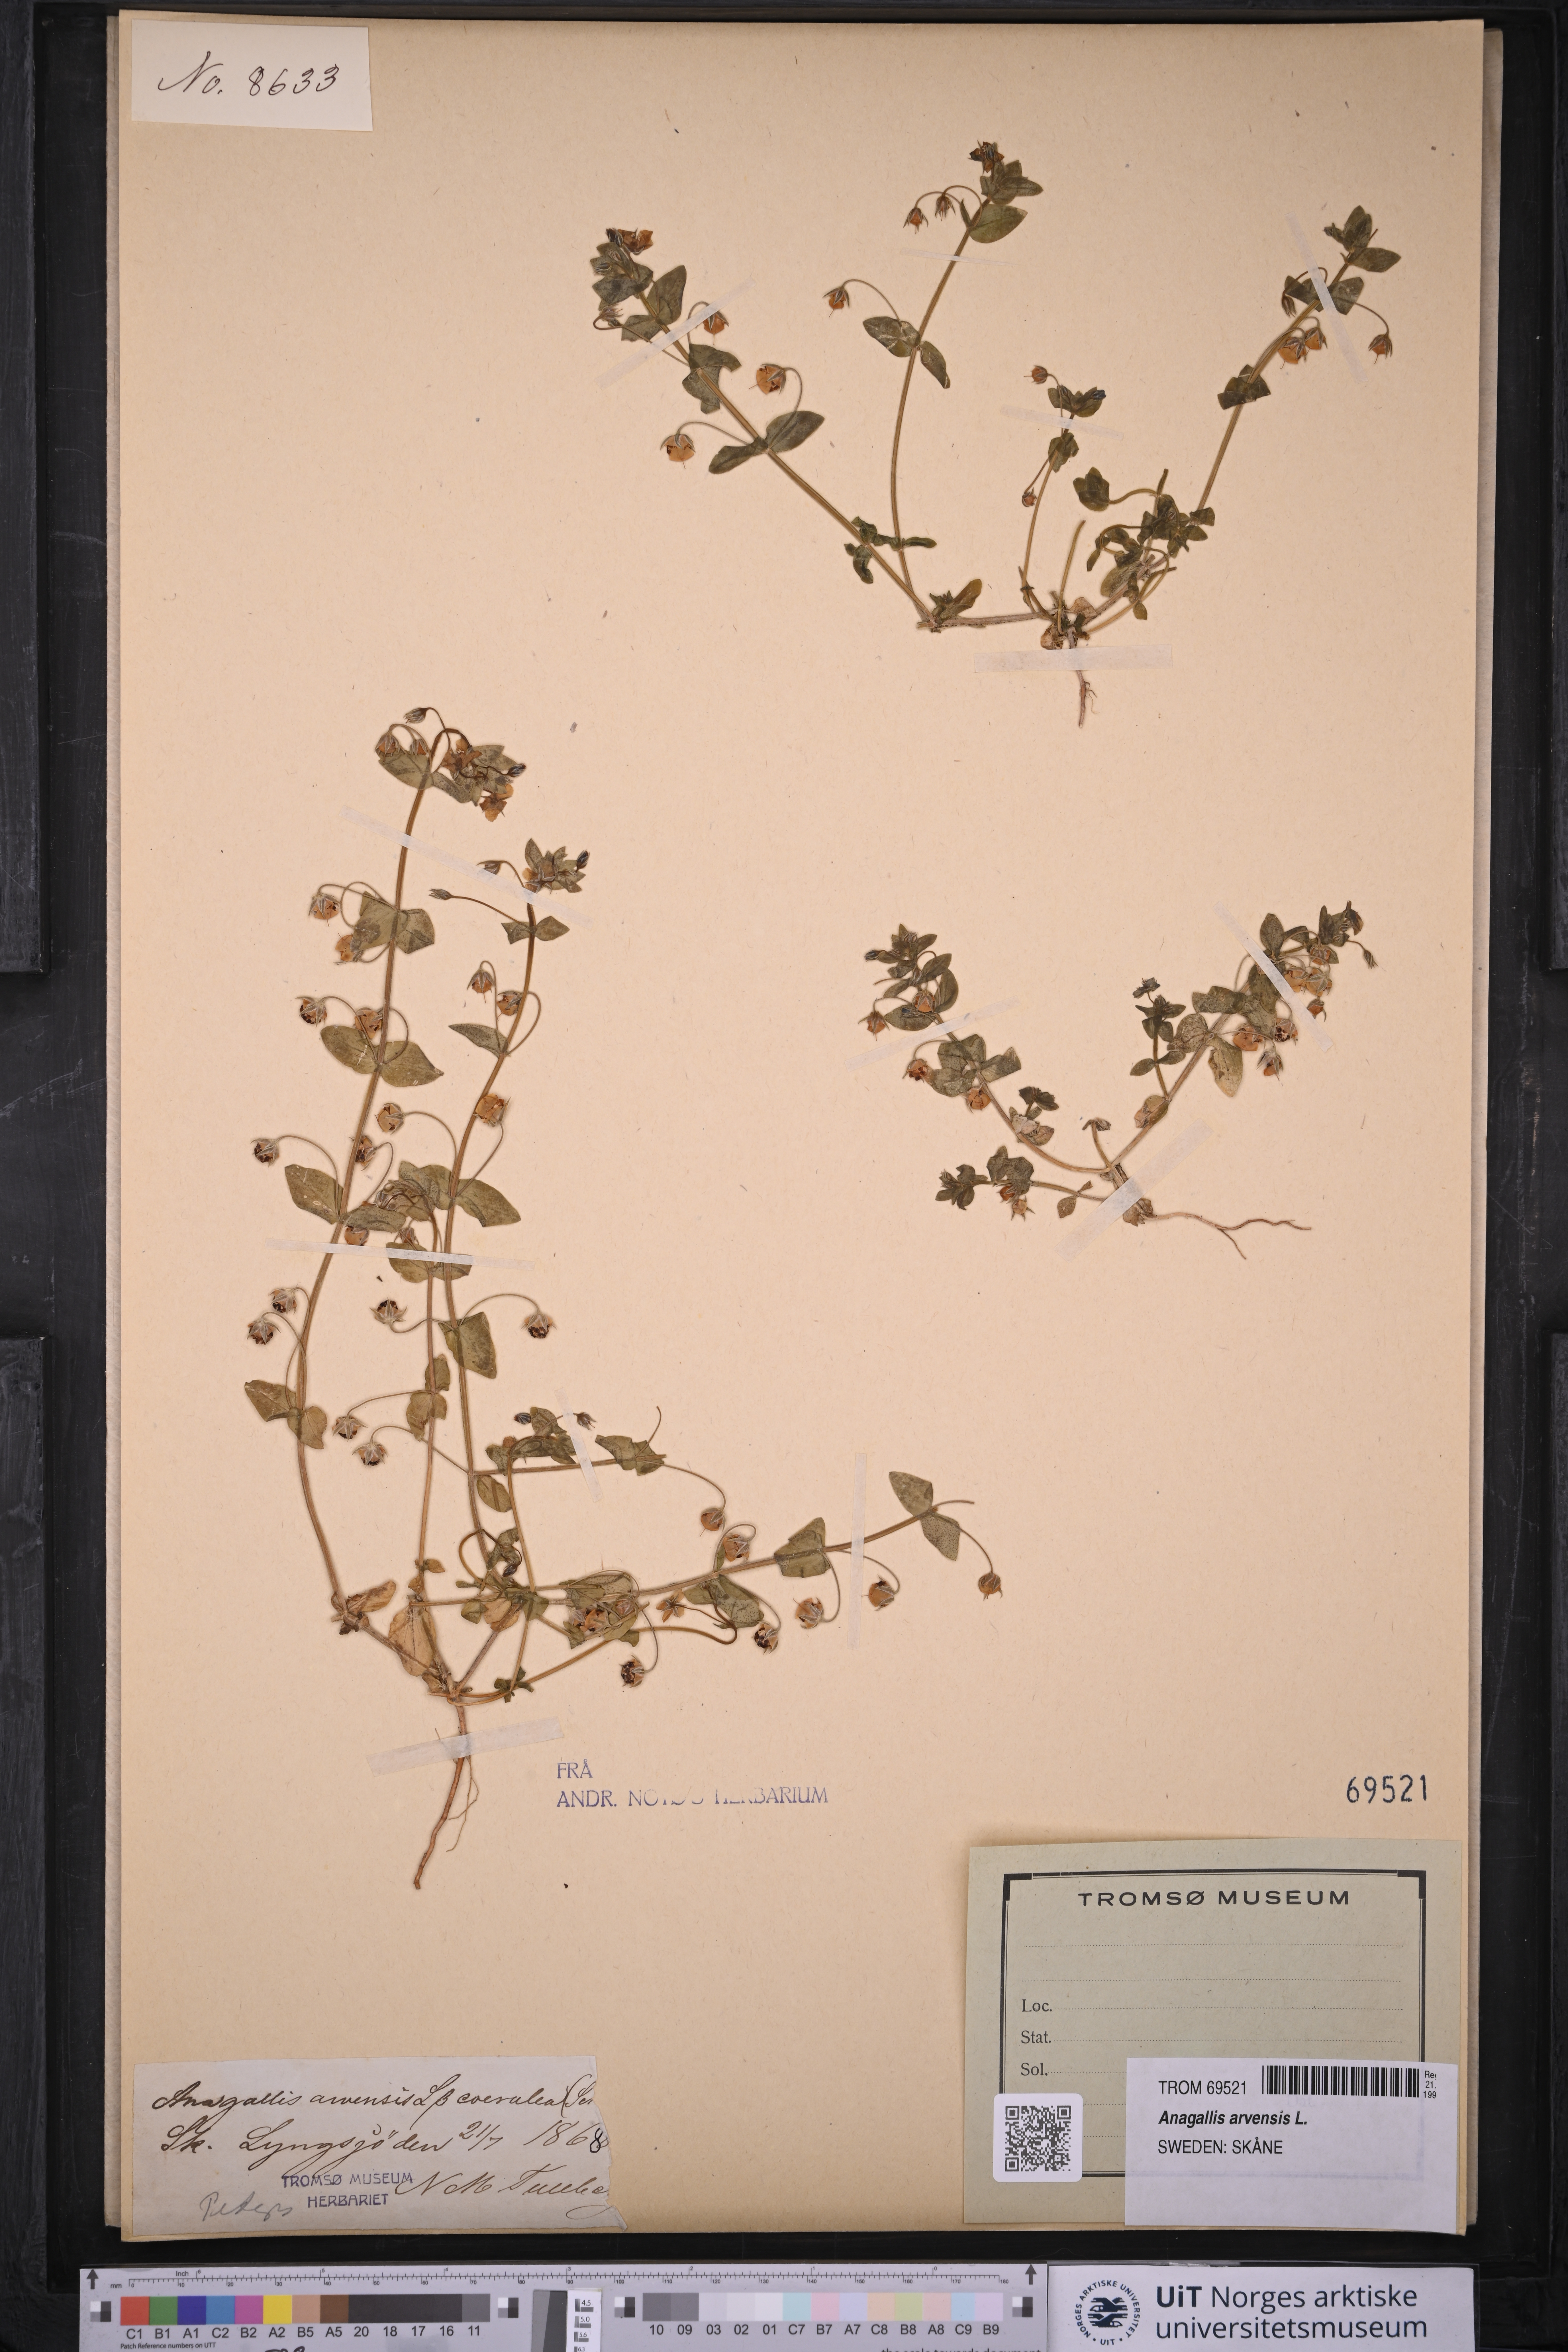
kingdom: Plantae
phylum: Tracheophyta
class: Magnoliopsida
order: Ericales
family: Primulaceae
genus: Lysimachia
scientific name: Lysimachia arvensis
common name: Scarlet pimpernel
